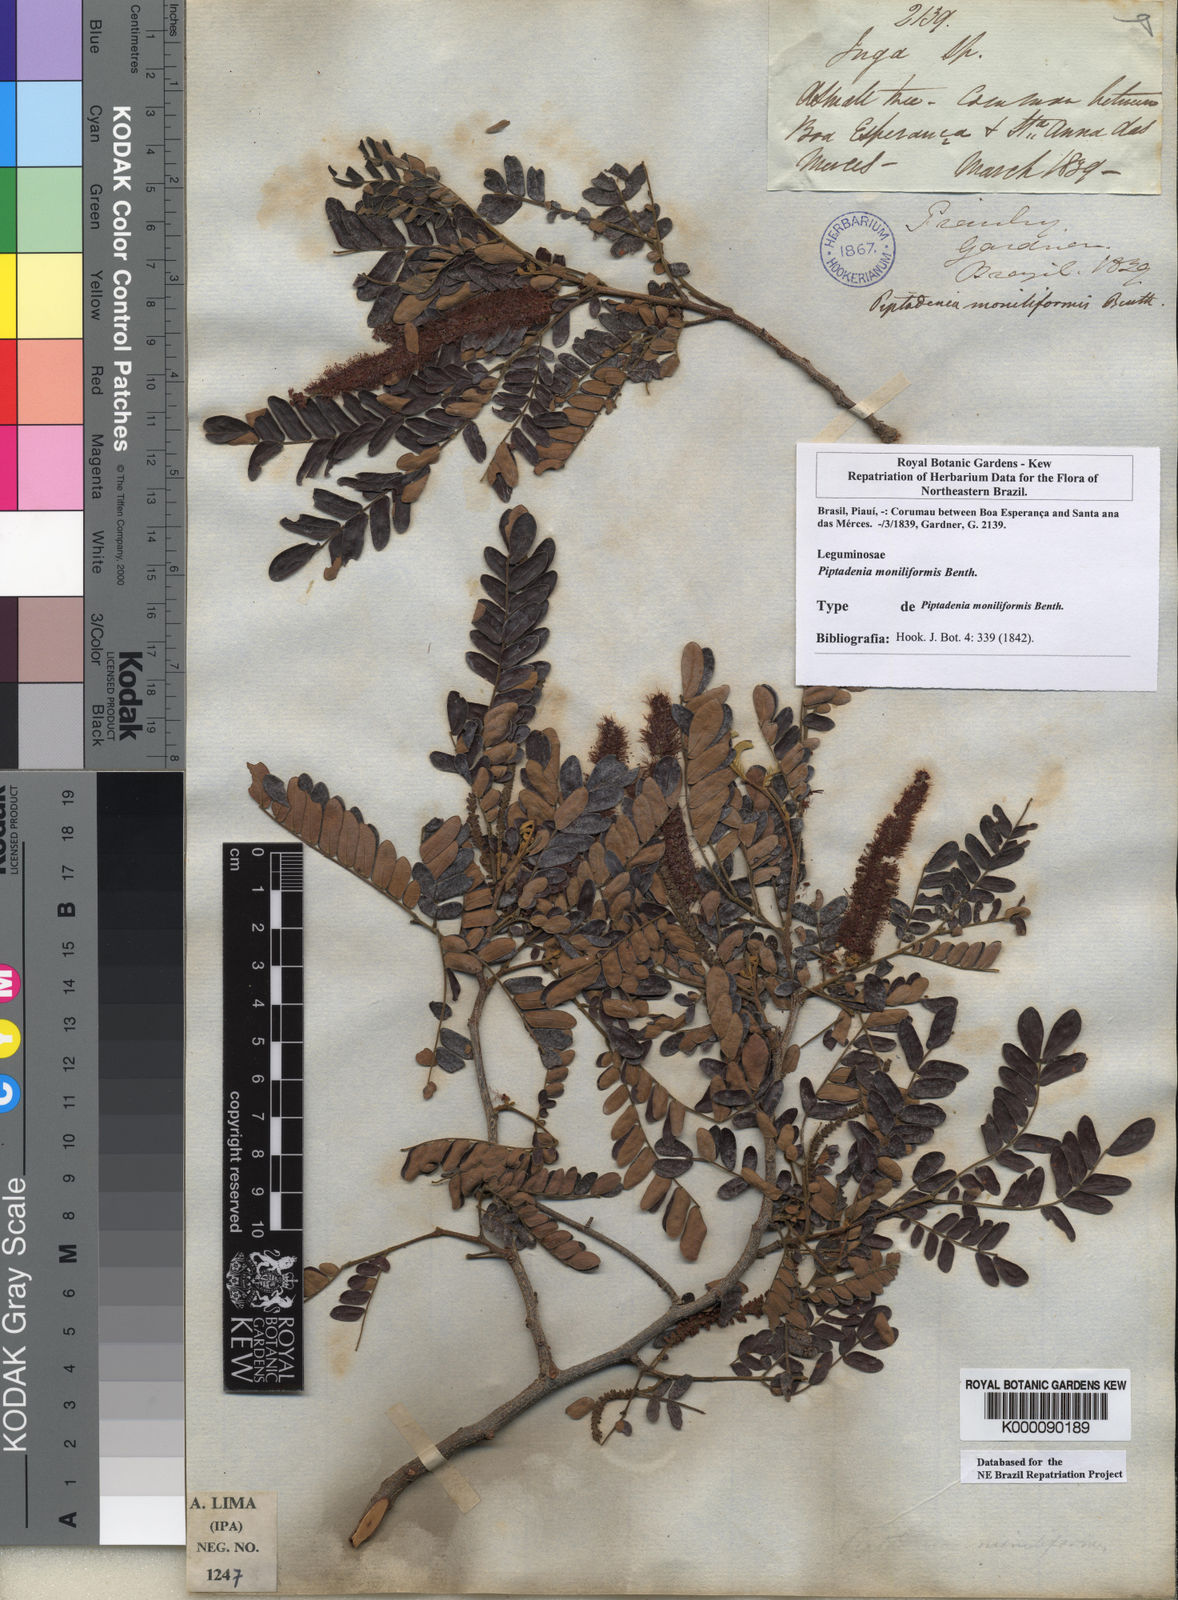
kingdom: Plantae
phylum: Tracheophyta
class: Magnoliopsida
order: Fabales
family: Fabaceae
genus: Pityrocarpa
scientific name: Pityrocarpa moniliformis
